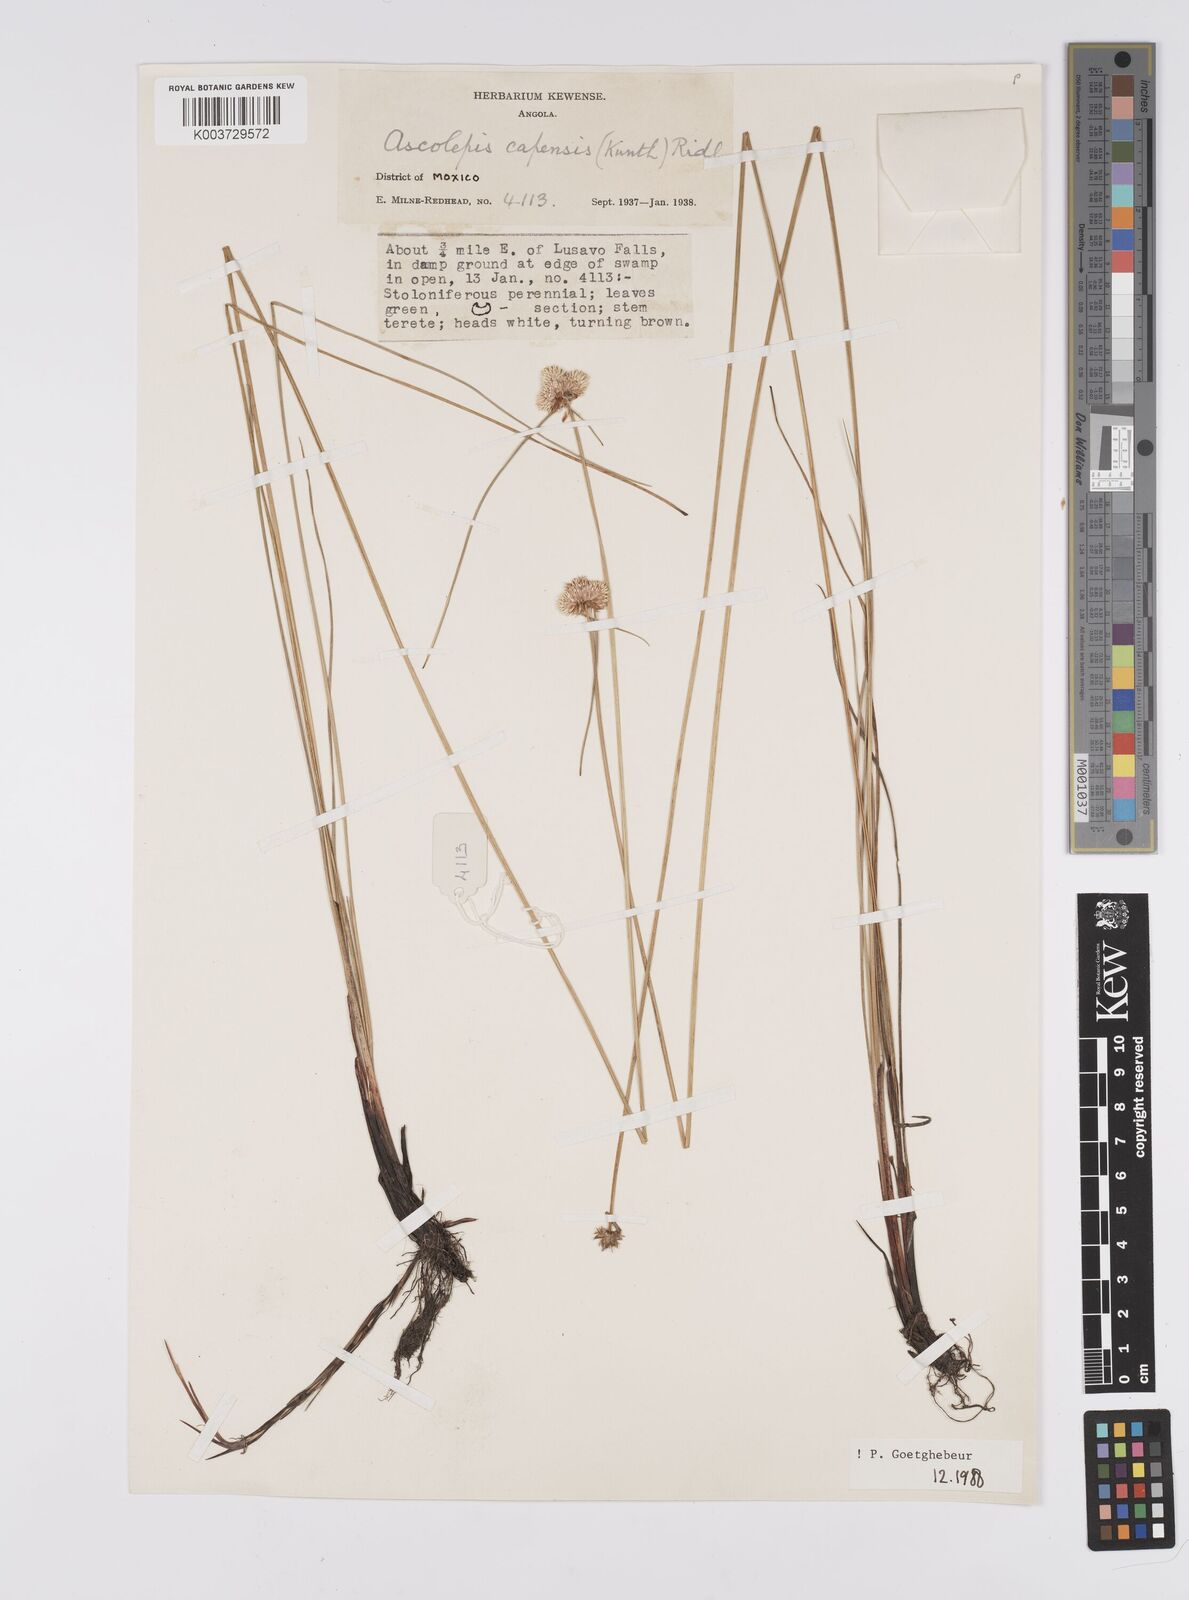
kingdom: Plantae
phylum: Tracheophyta
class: Liliopsida
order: Poales
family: Cyperaceae
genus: Cyperus
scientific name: Cyperus
